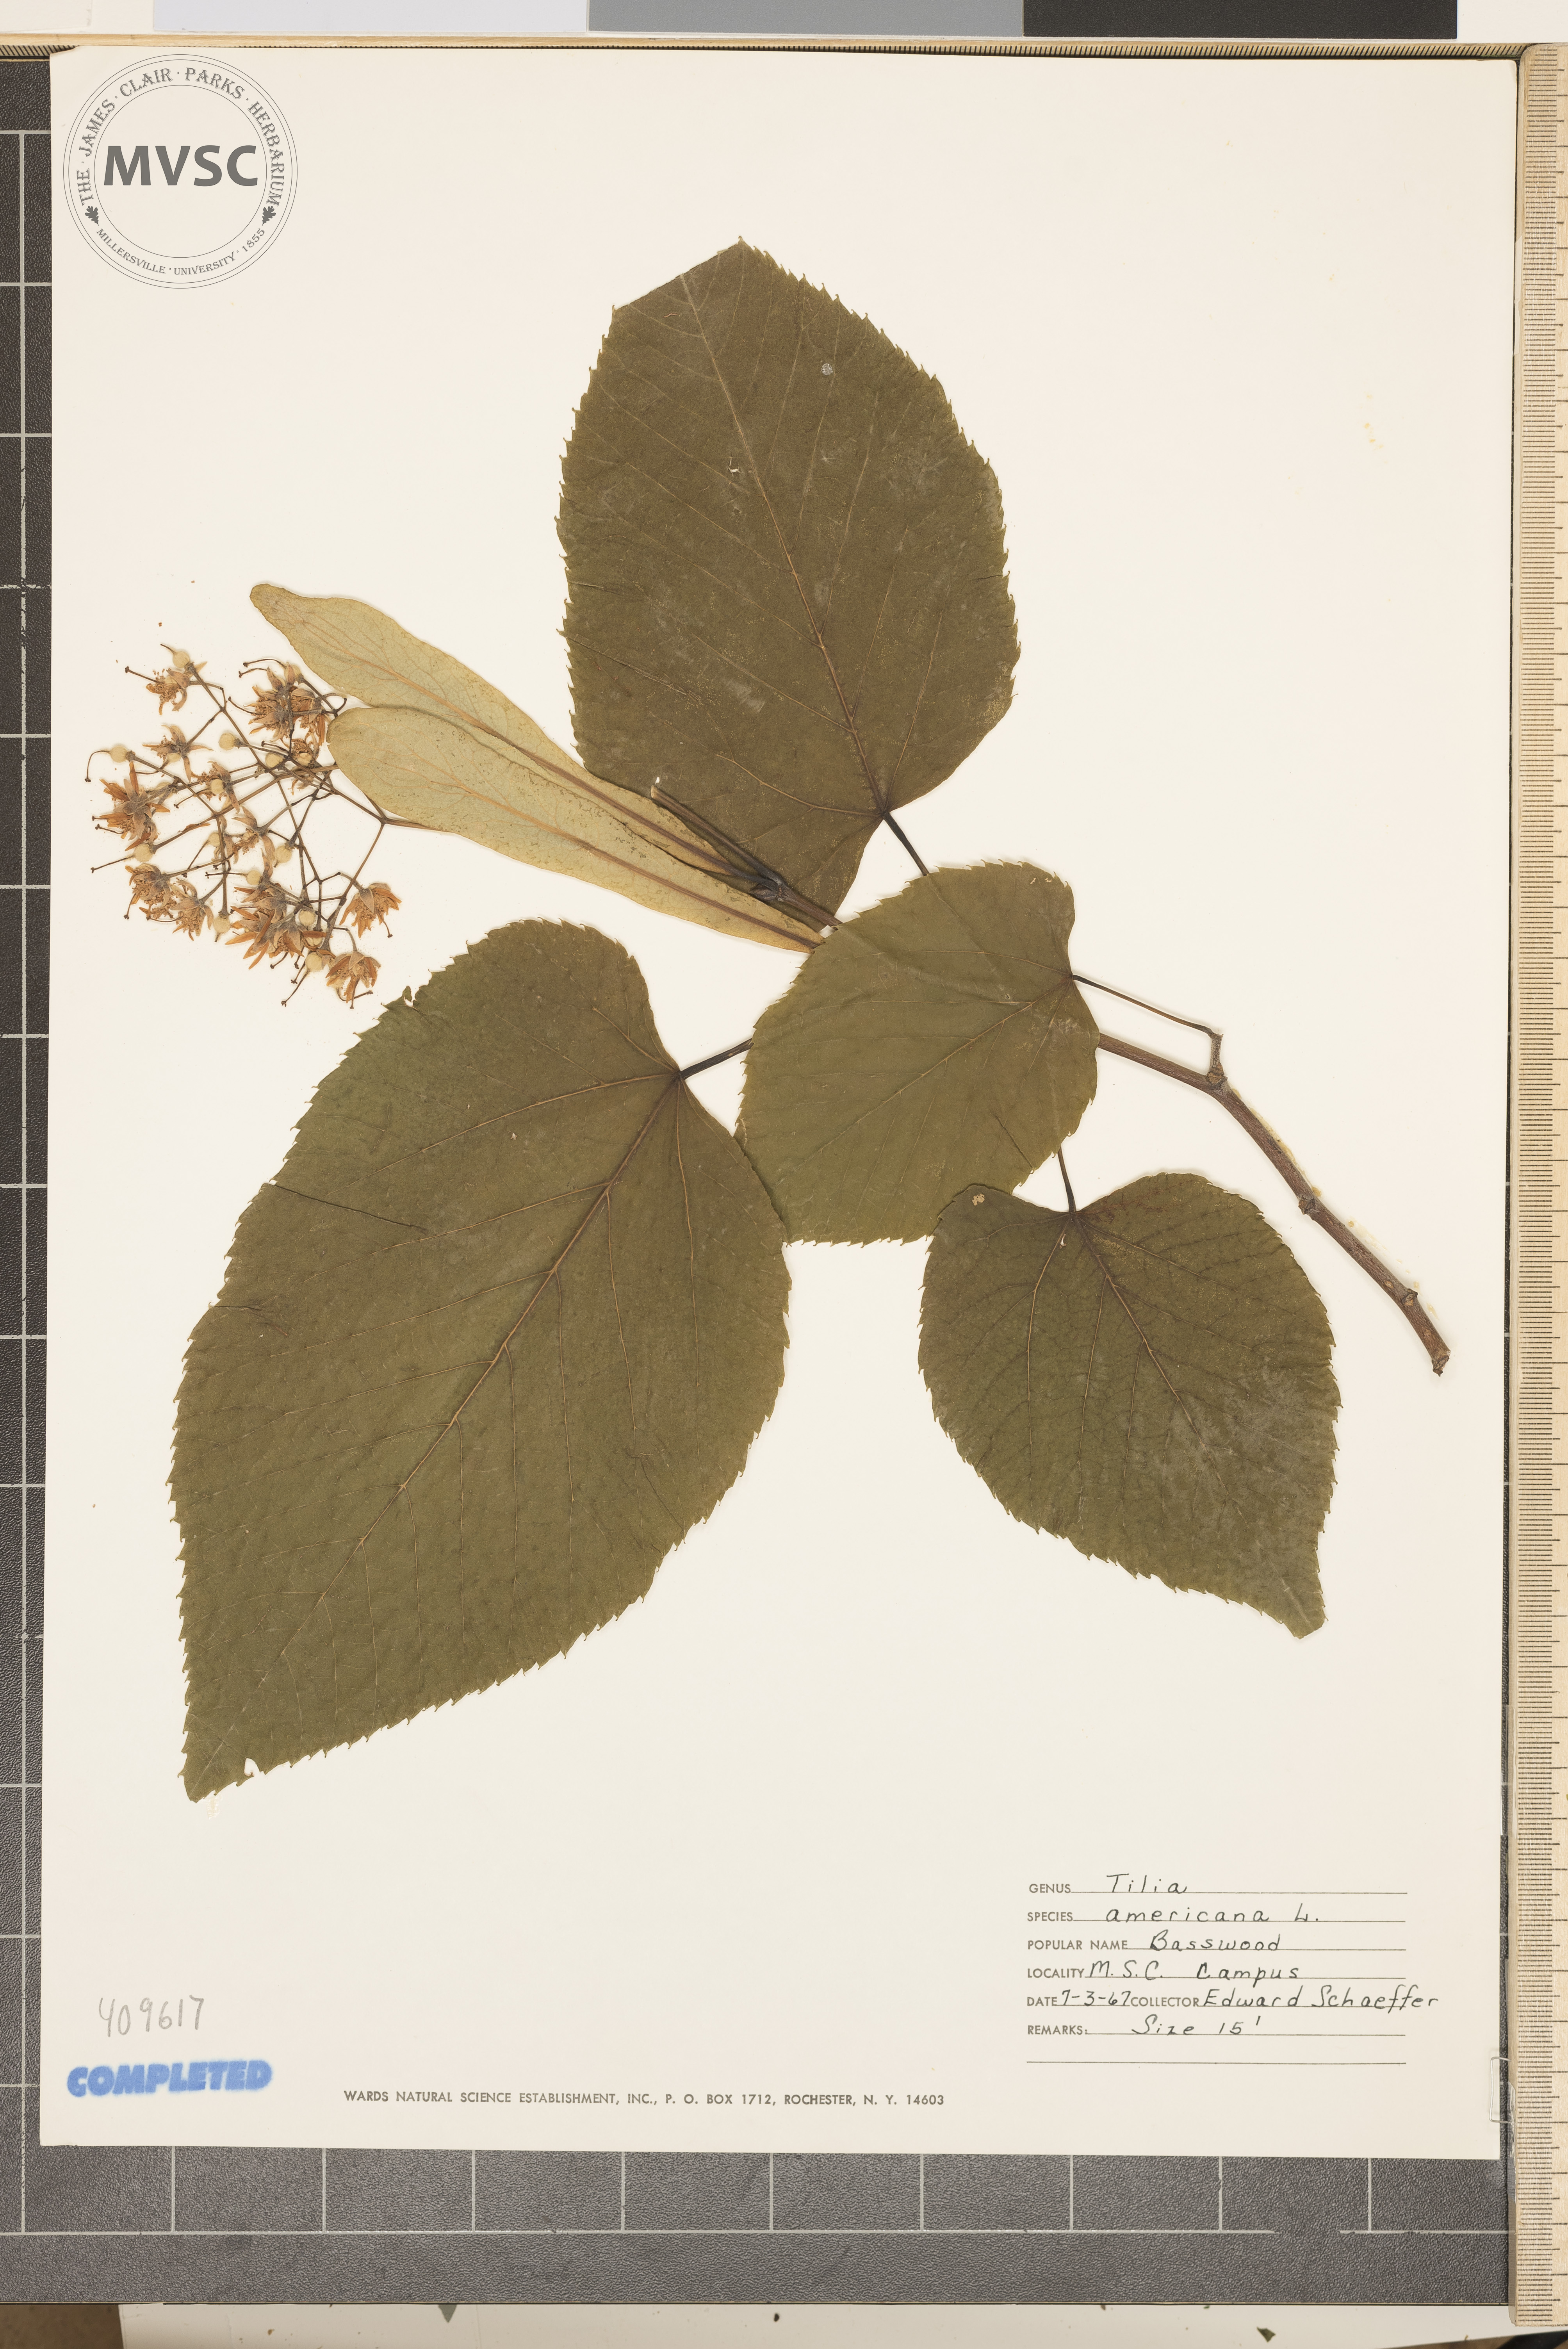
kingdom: Plantae
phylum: Tracheophyta
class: Magnoliopsida
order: Malvales
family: Malvaceae
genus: Tilia
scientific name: Tilia americana
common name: American basswood
